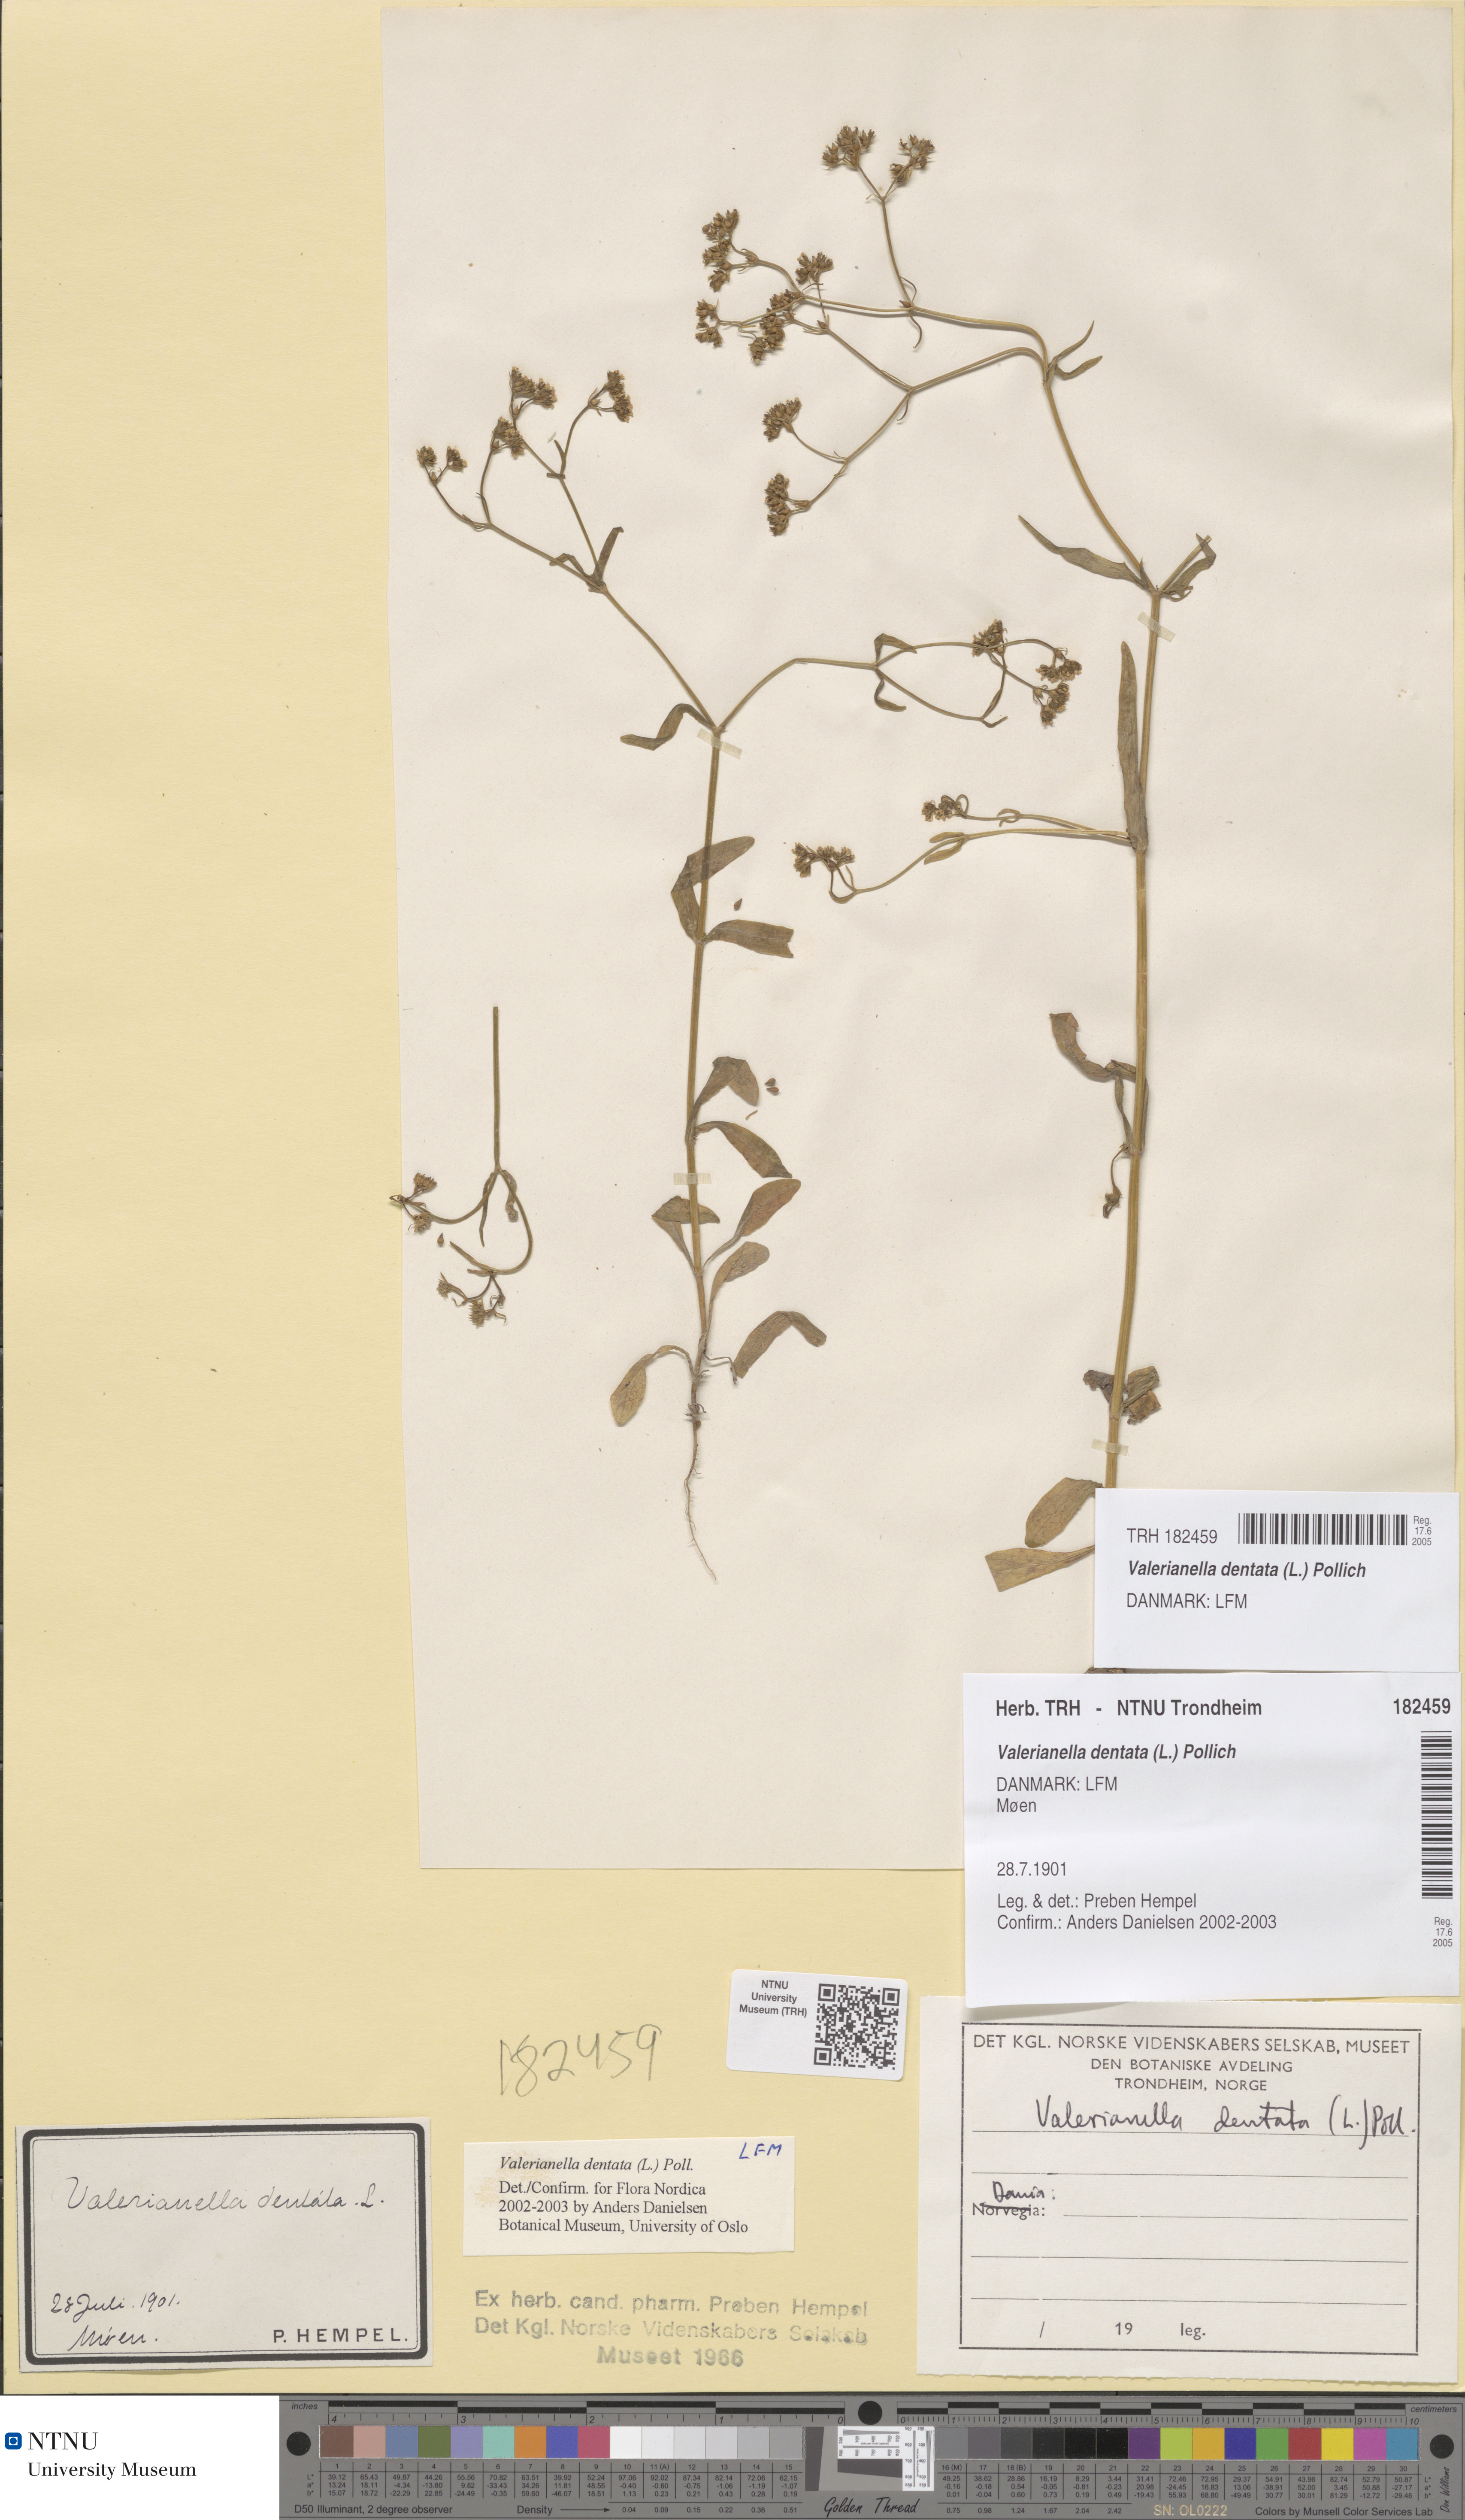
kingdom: Plantae
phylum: Tracheophyta
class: Magnoliopsida
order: Dipsacales
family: Caprifoliaceae
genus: Valerianella
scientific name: Valerianella dentata
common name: Narrow-fruited cornsalad
